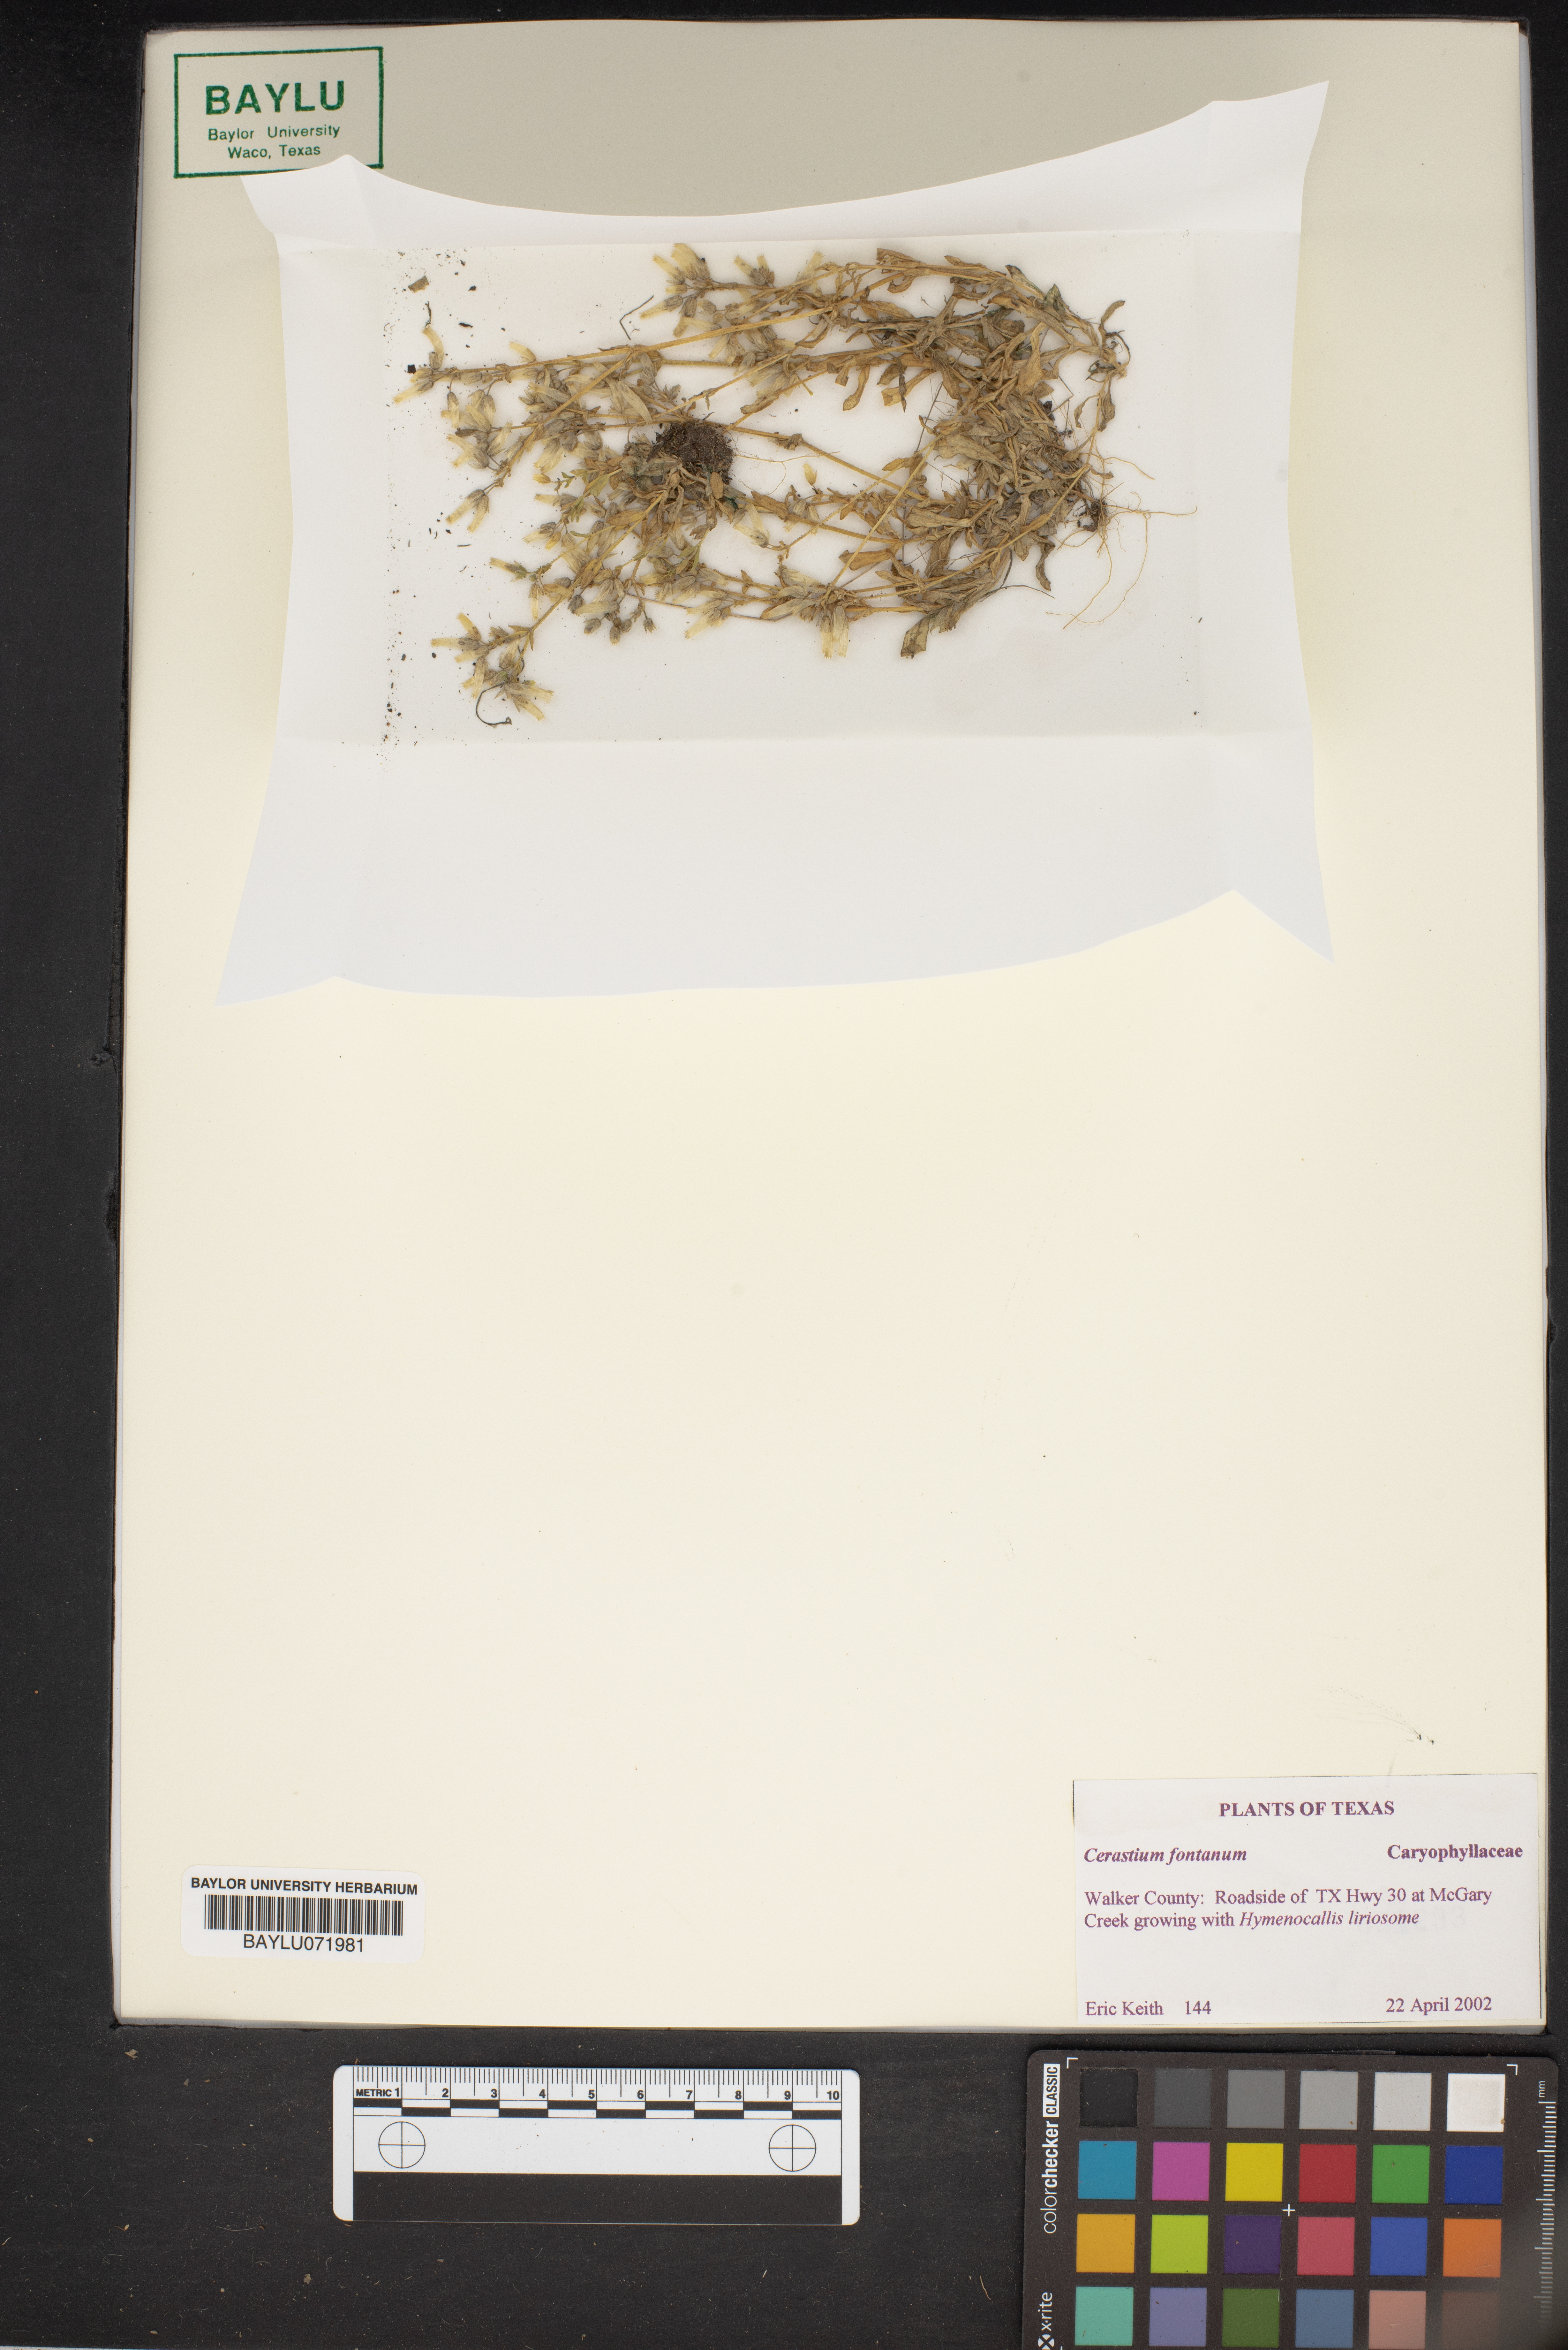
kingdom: Plantae
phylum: Tracheophyta
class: Magnoliopsida
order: Caryophyllales
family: Caryophyllaceae
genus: Cerastium
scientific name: Cerastium fontanum
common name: Common mouse-ear
